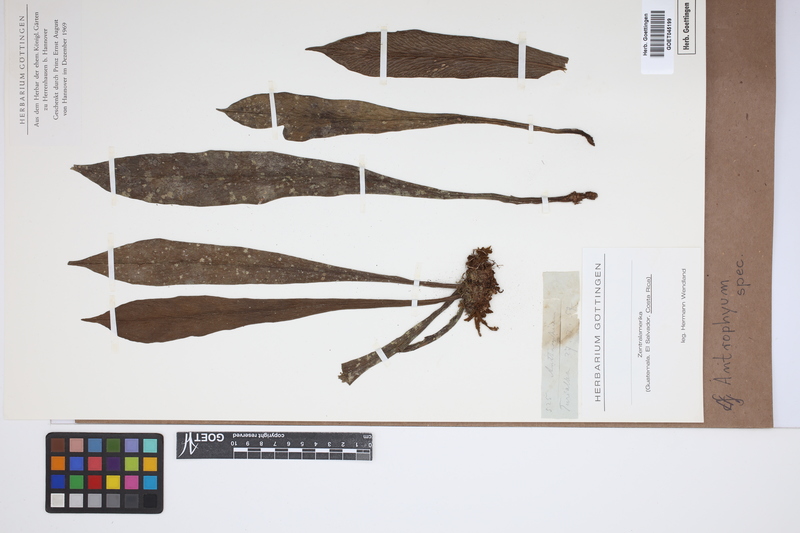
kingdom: Plantae
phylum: Tracheophyta
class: Polypodiopsida
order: Polypodiales
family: Pteridaceae
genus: Antrophyum
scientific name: Antrophyum
